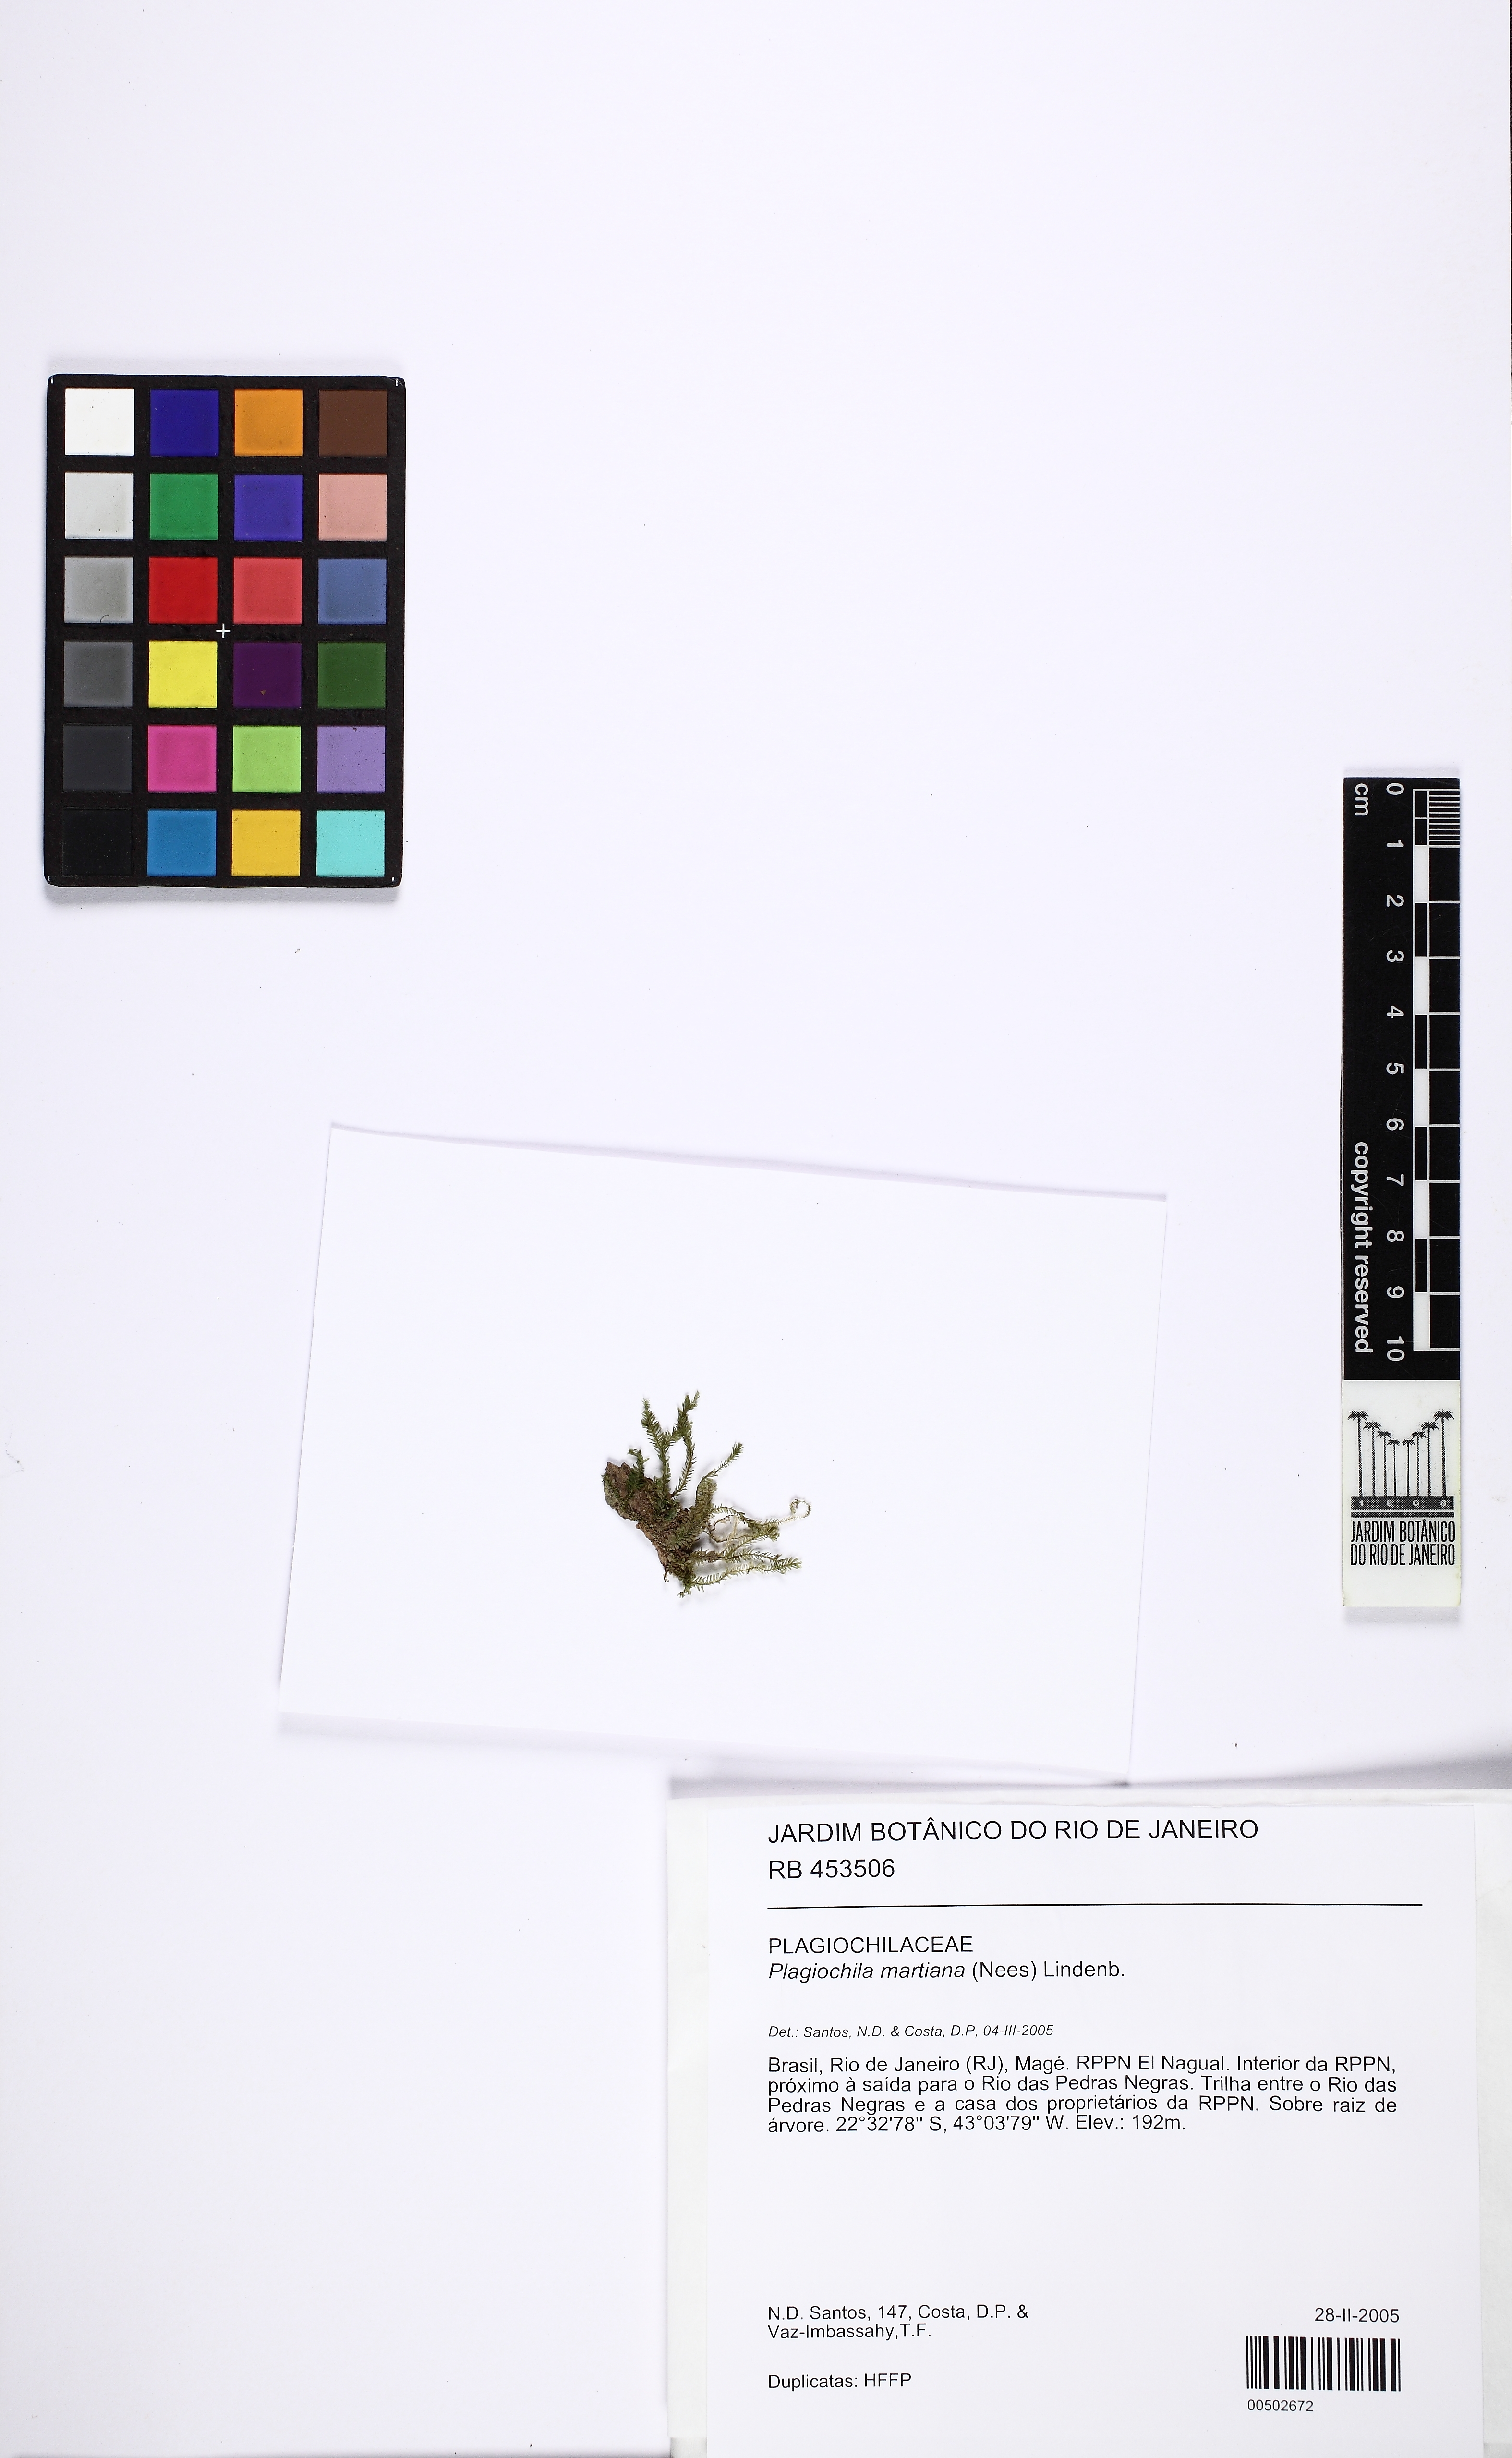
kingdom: Plantae
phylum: Marchantiophyta
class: Jungermanniopsida
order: Jungermanniales
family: Plagiochilaceae
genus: Plagiochila
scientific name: Plagiochila patula
